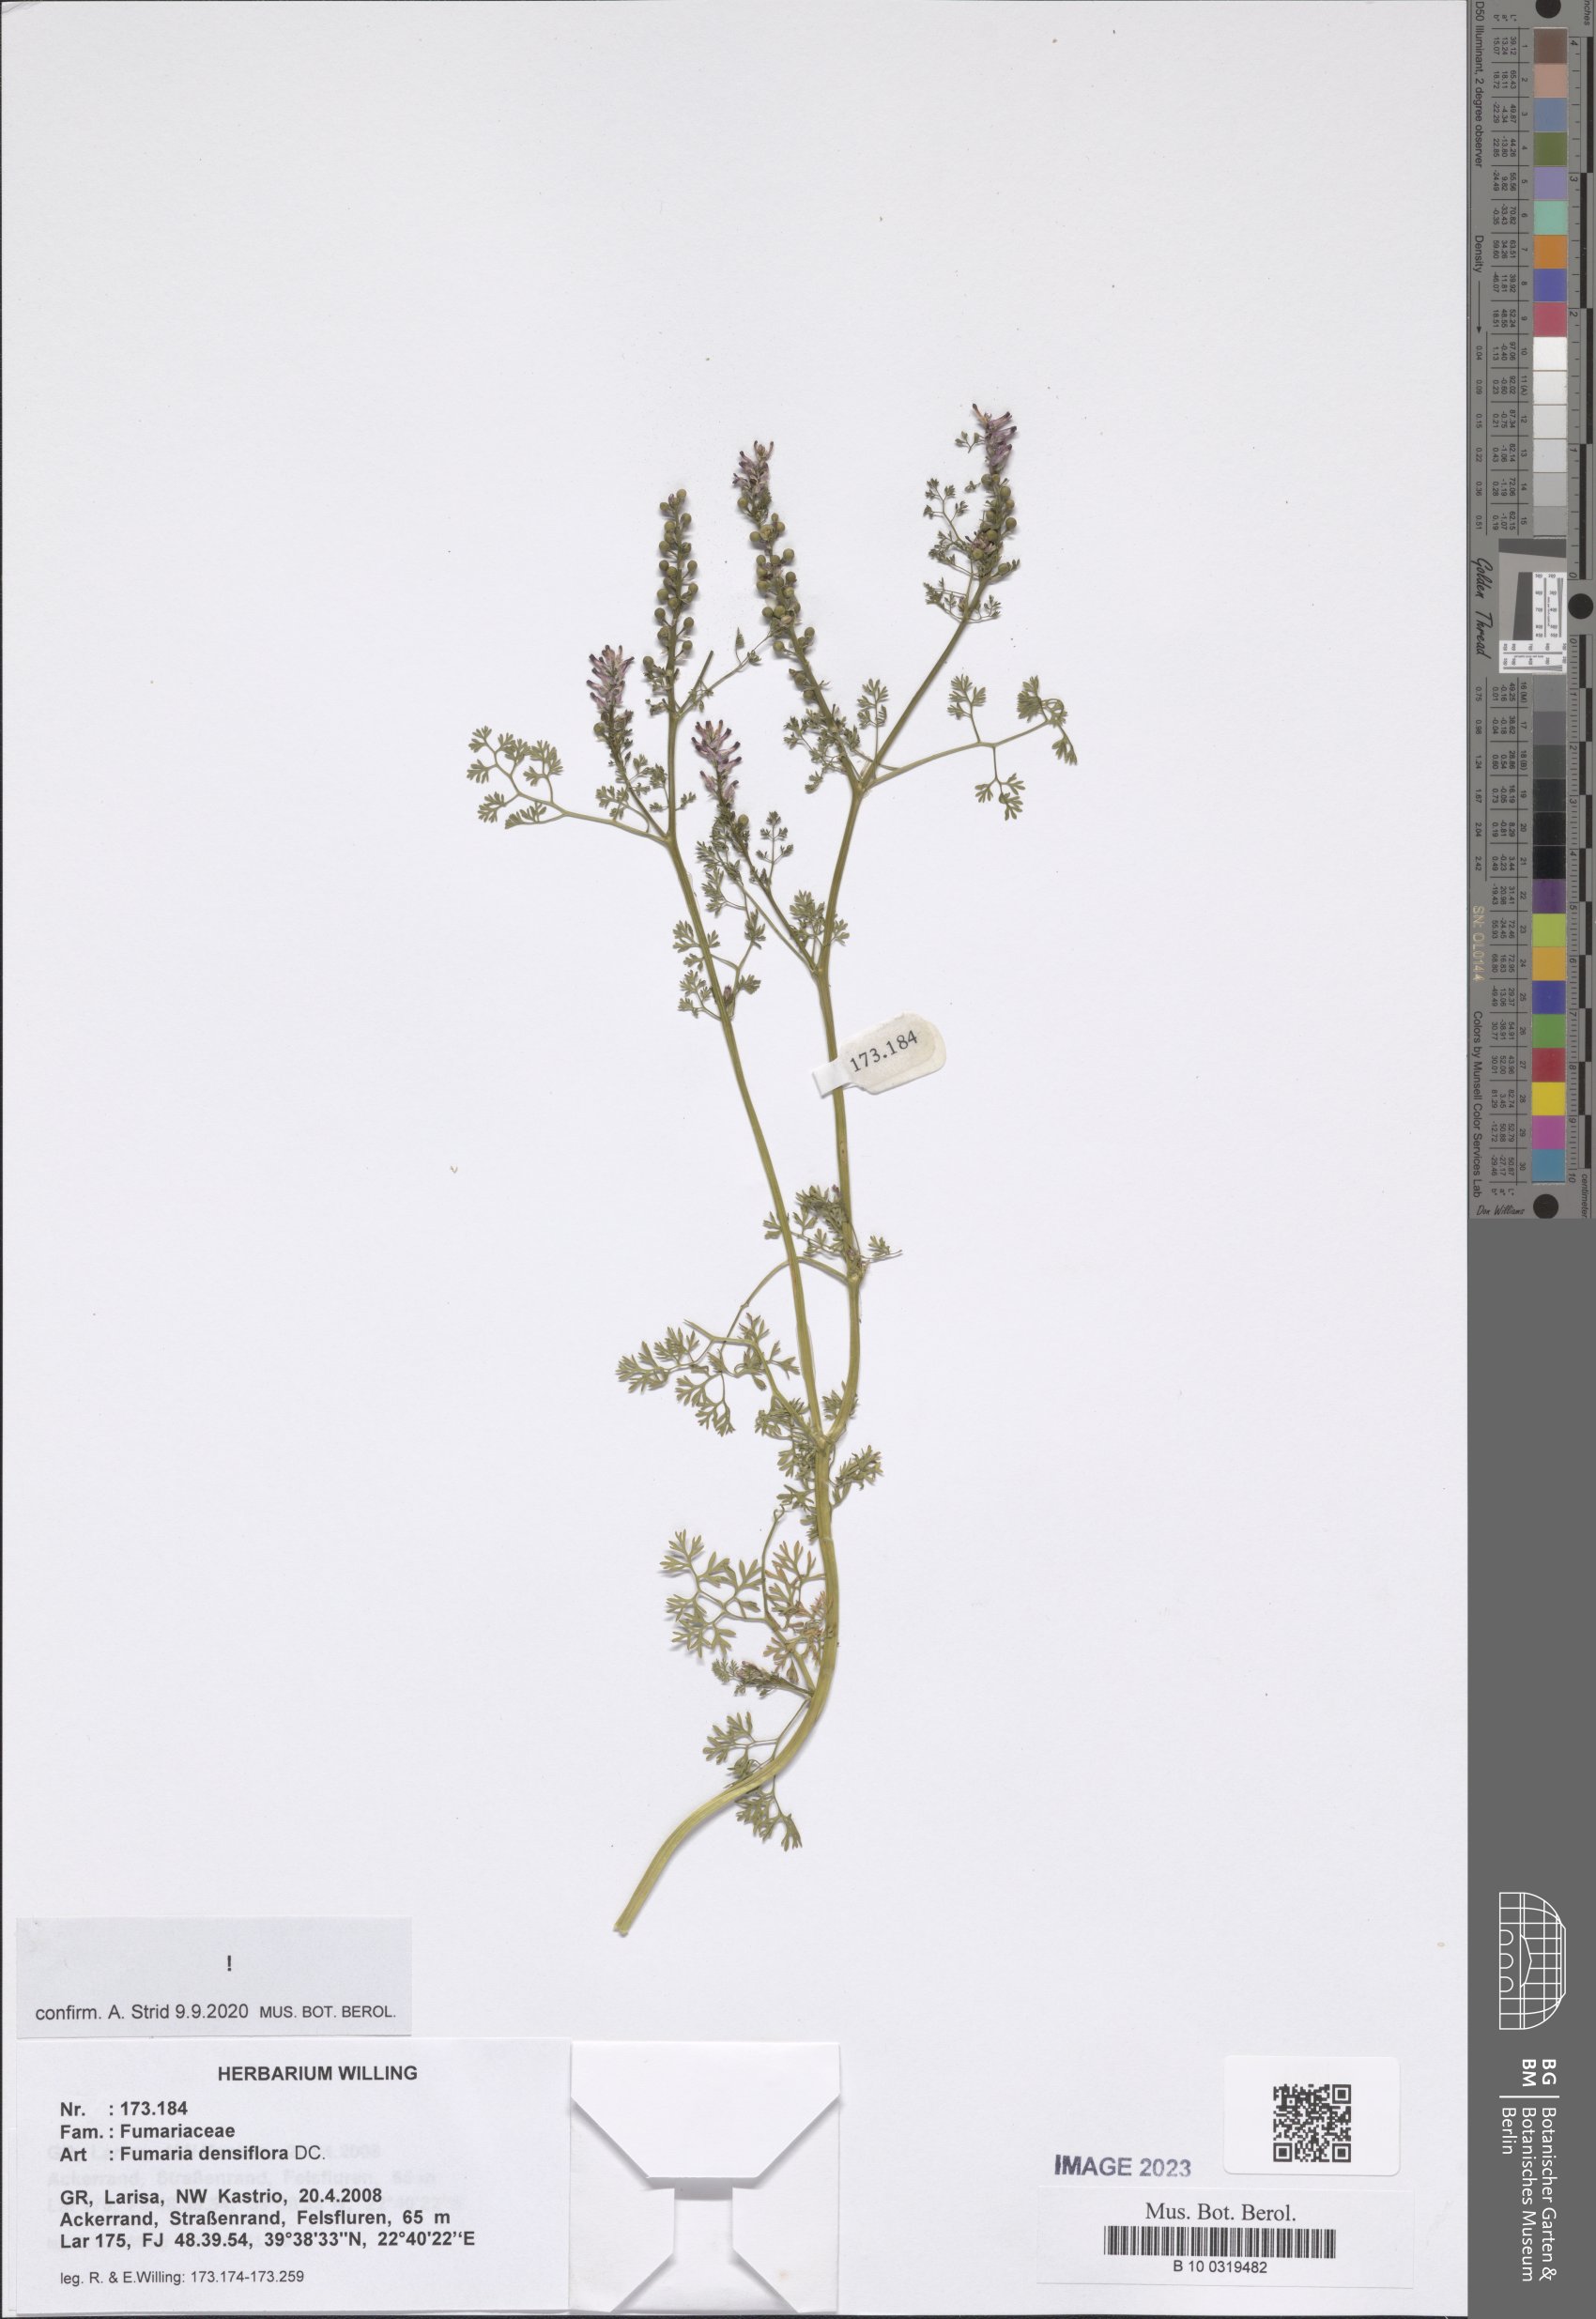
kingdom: Plantae
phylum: Tracheophyta
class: Magnoliopsida
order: Ranunculales
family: Papaveraceae
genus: Fumaria
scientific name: Fumaria densiflora
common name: Dense-flowered fumitory
